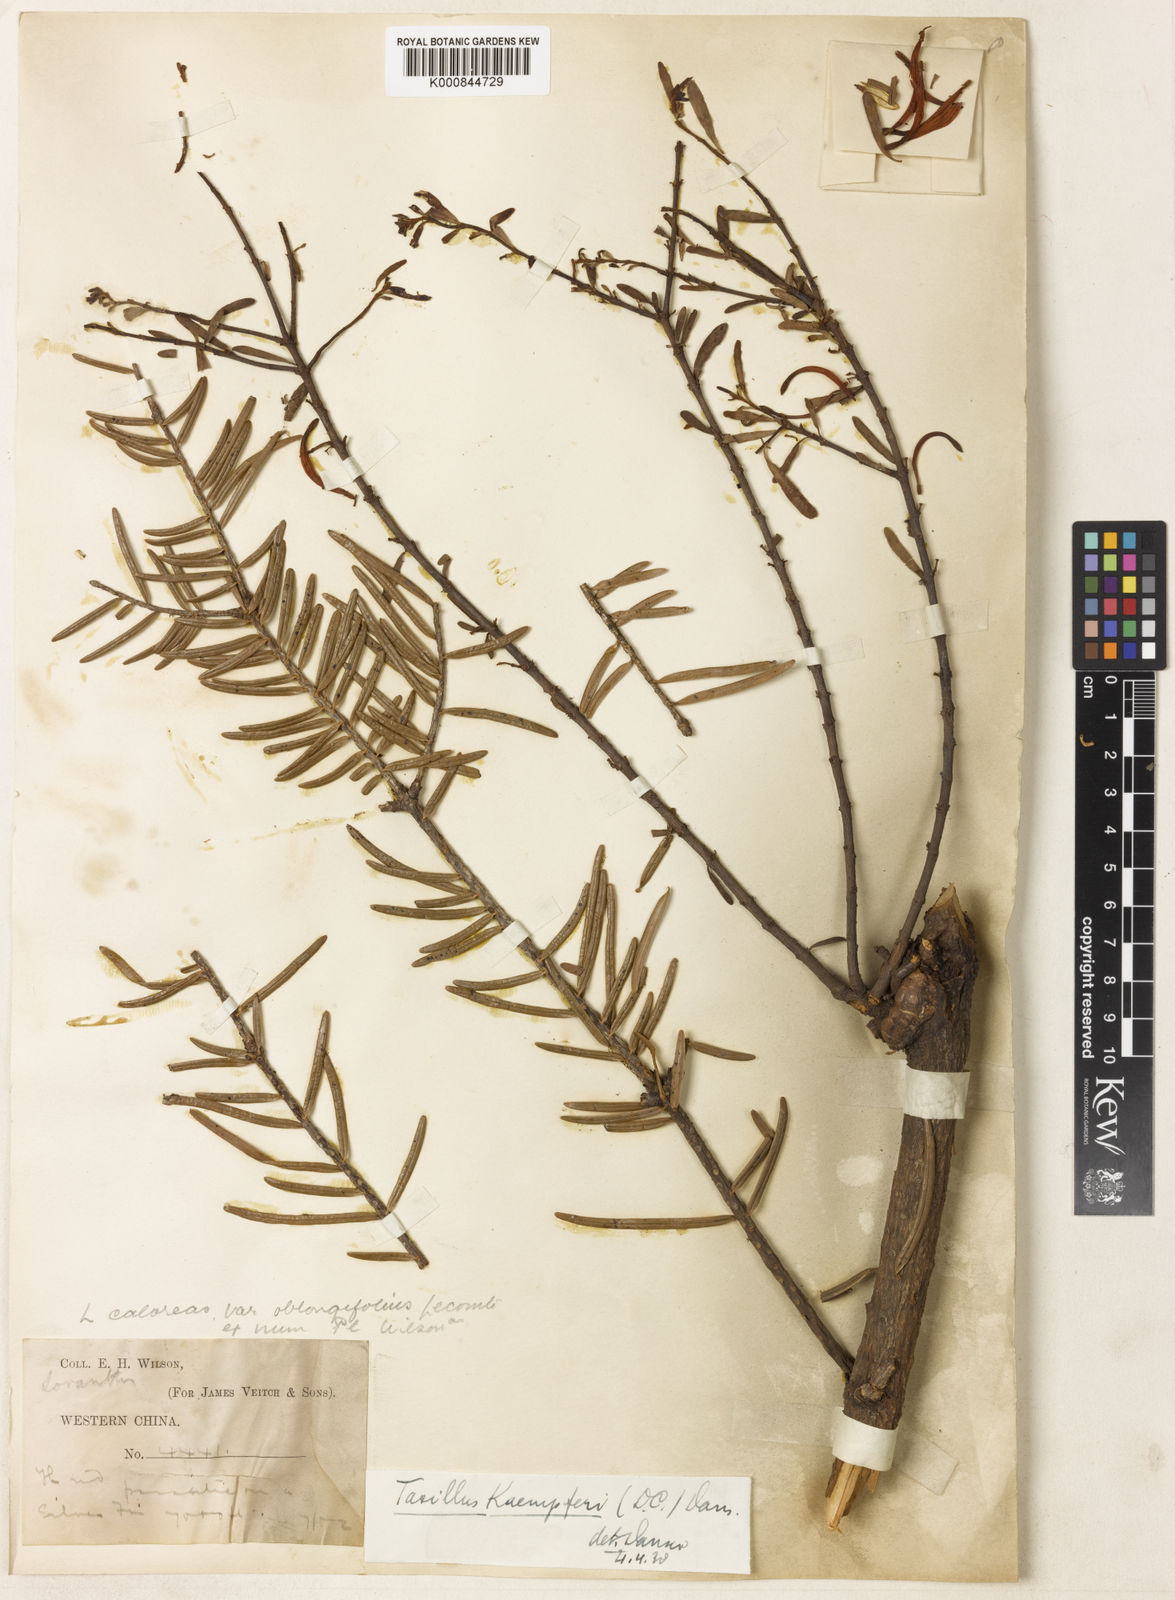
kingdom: Plantae
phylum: Tracheophyta
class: Magnoliopsida
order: Santalales
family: Loranthaceae
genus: Taxillus
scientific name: Taxillus kaempferi
